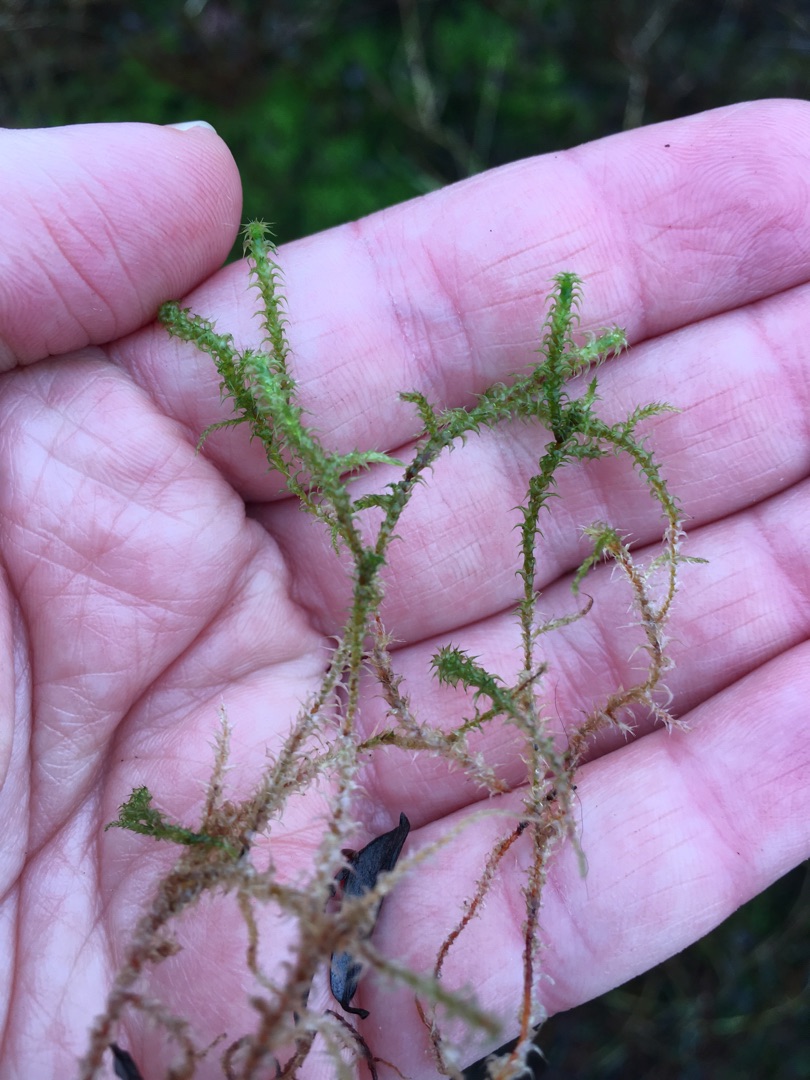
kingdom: Plantae
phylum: Bryophyta
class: Bryopsida
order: Hypnales
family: Hylocomiaceae
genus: Rhytidiadelphus
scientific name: Rhytidiadelphus squarrosus
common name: Plæne-kransemos
